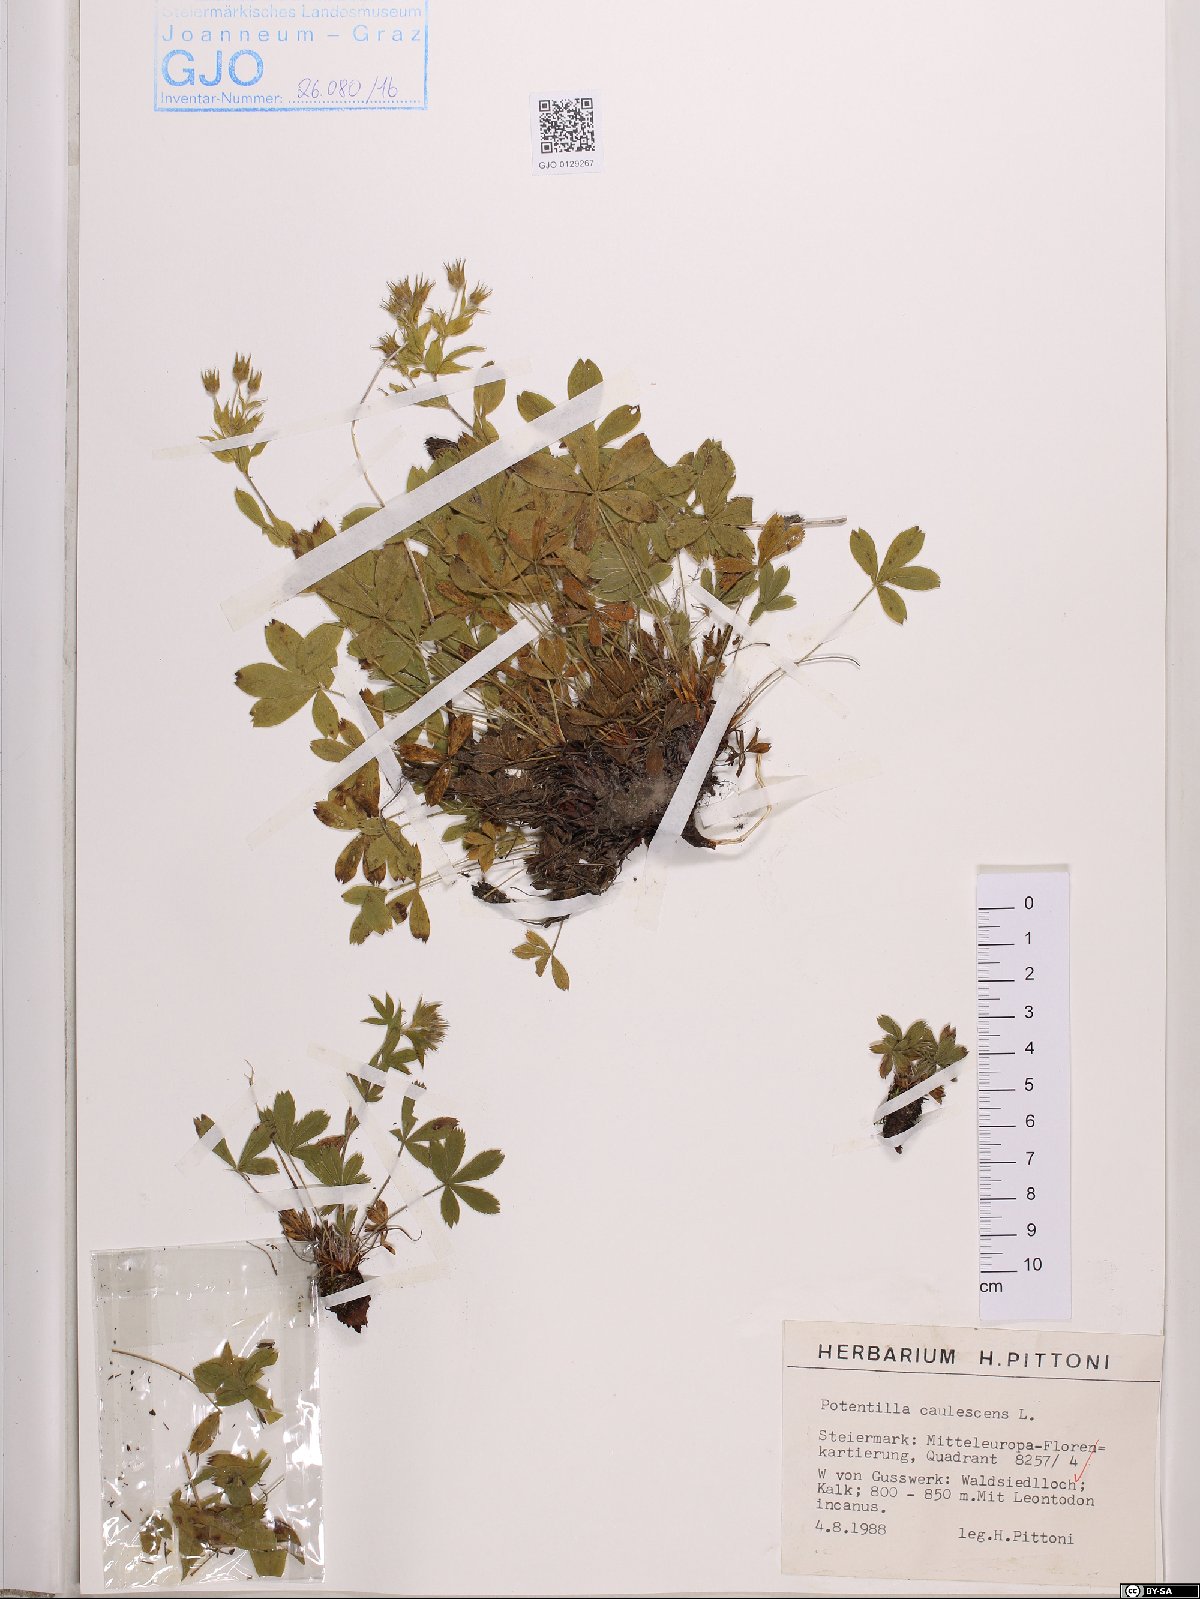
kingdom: Plantae
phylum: Tracheophyta
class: Magnoliopsida
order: Rosales
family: Rosaceae
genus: Potentilla
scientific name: Potentilla caulescens
